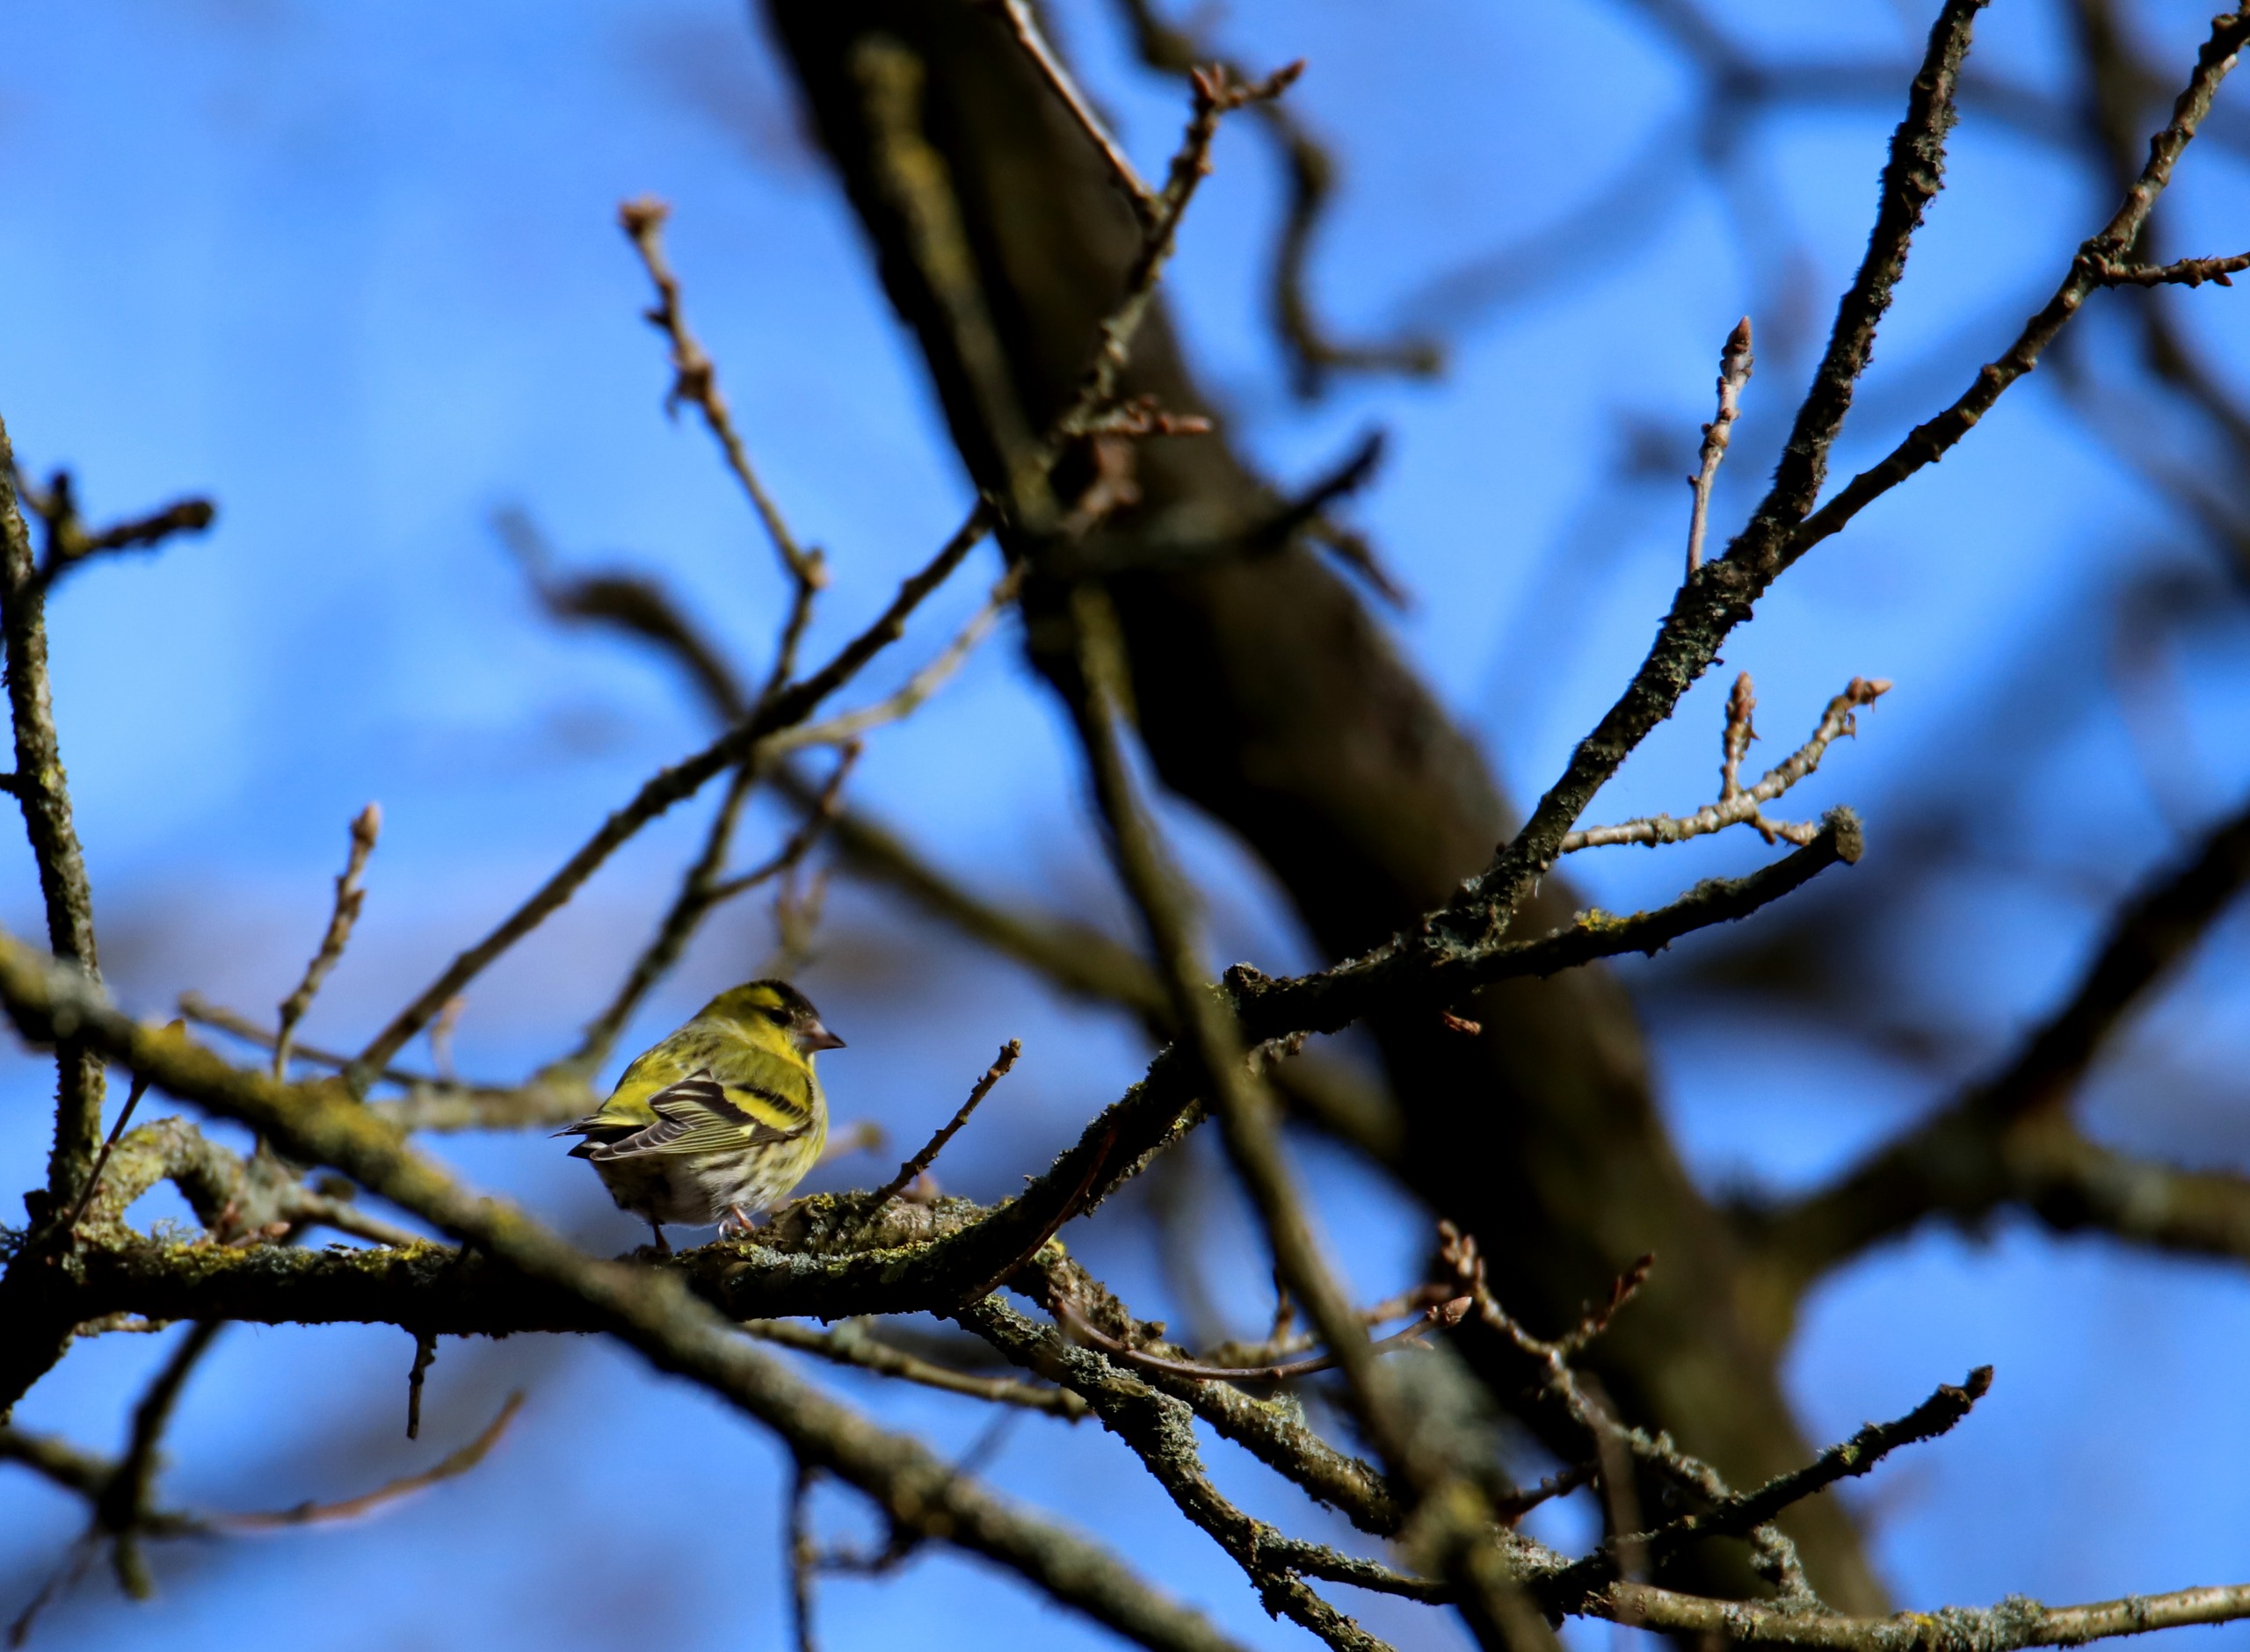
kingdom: Animalia
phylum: Chordata
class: Aves
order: Passeriformes
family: Fringillidae
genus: Spinus
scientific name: Spinus spinus
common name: Grønsisken
